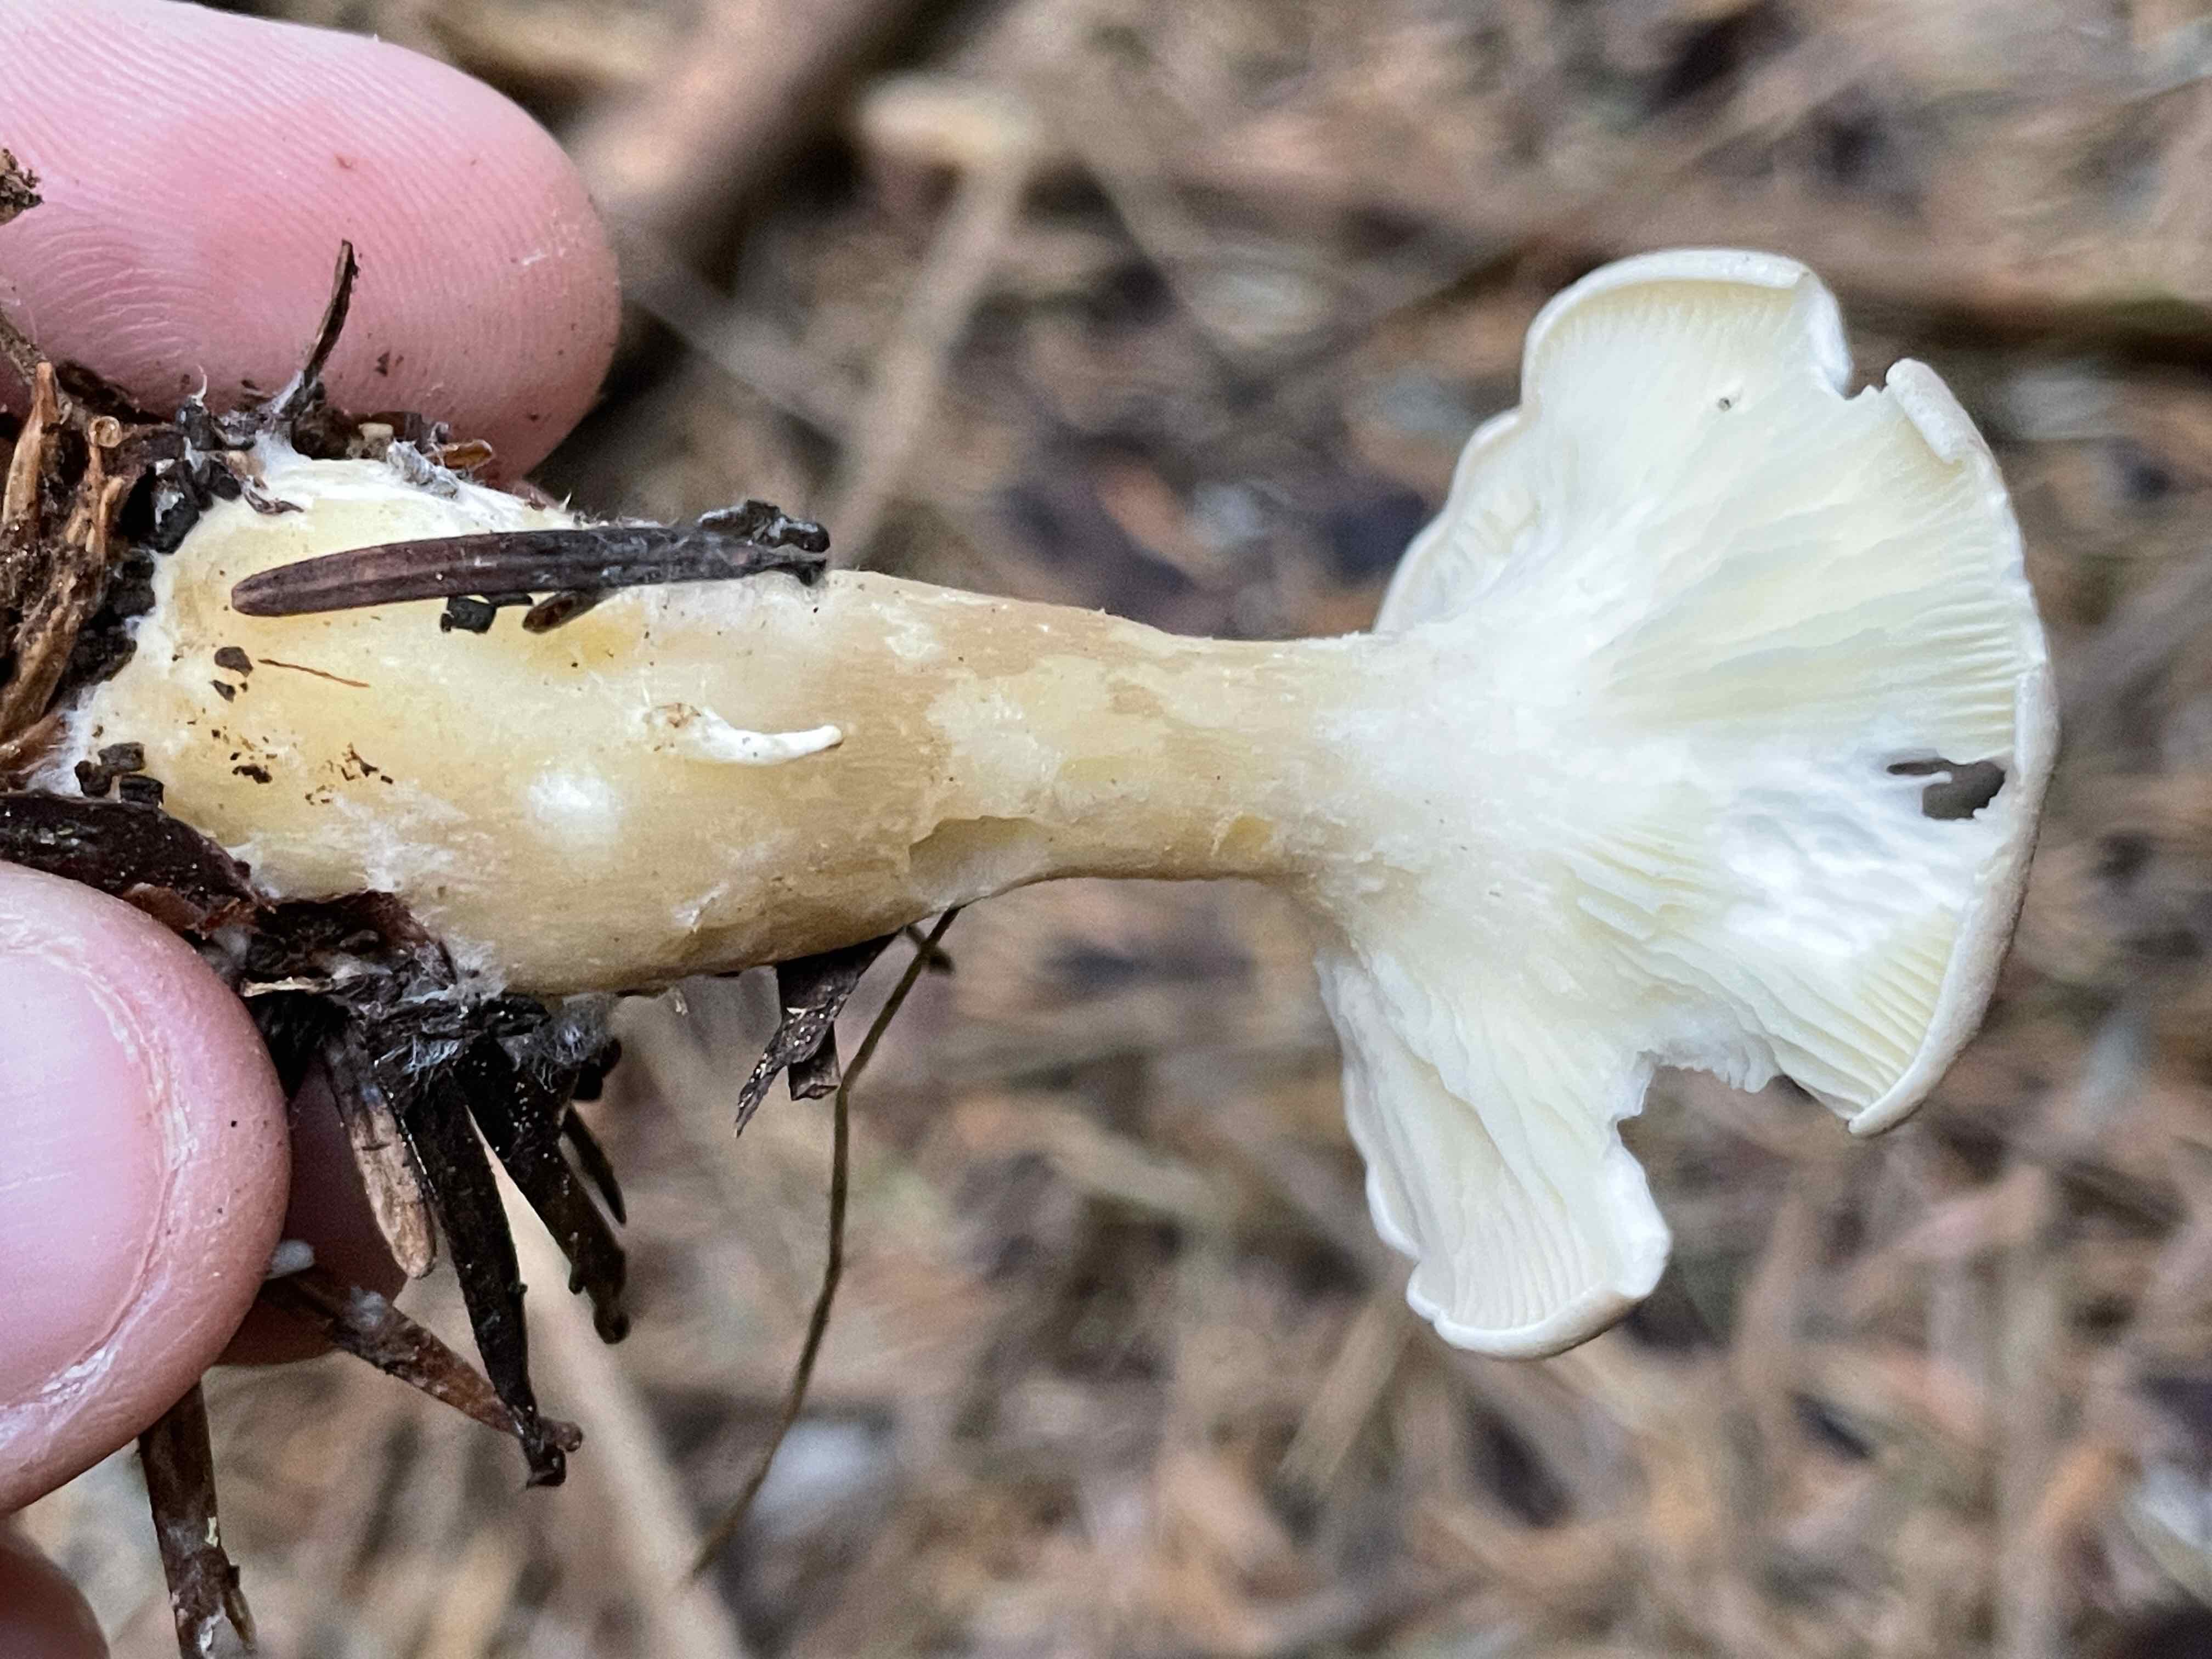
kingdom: Fungi
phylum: Basidiomycota
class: Agaricomycetes
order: Agaricales
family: Hygrophoraceae
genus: Ampulloclitocybe
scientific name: Ampulloclitocybe clavipes
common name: køllefod
